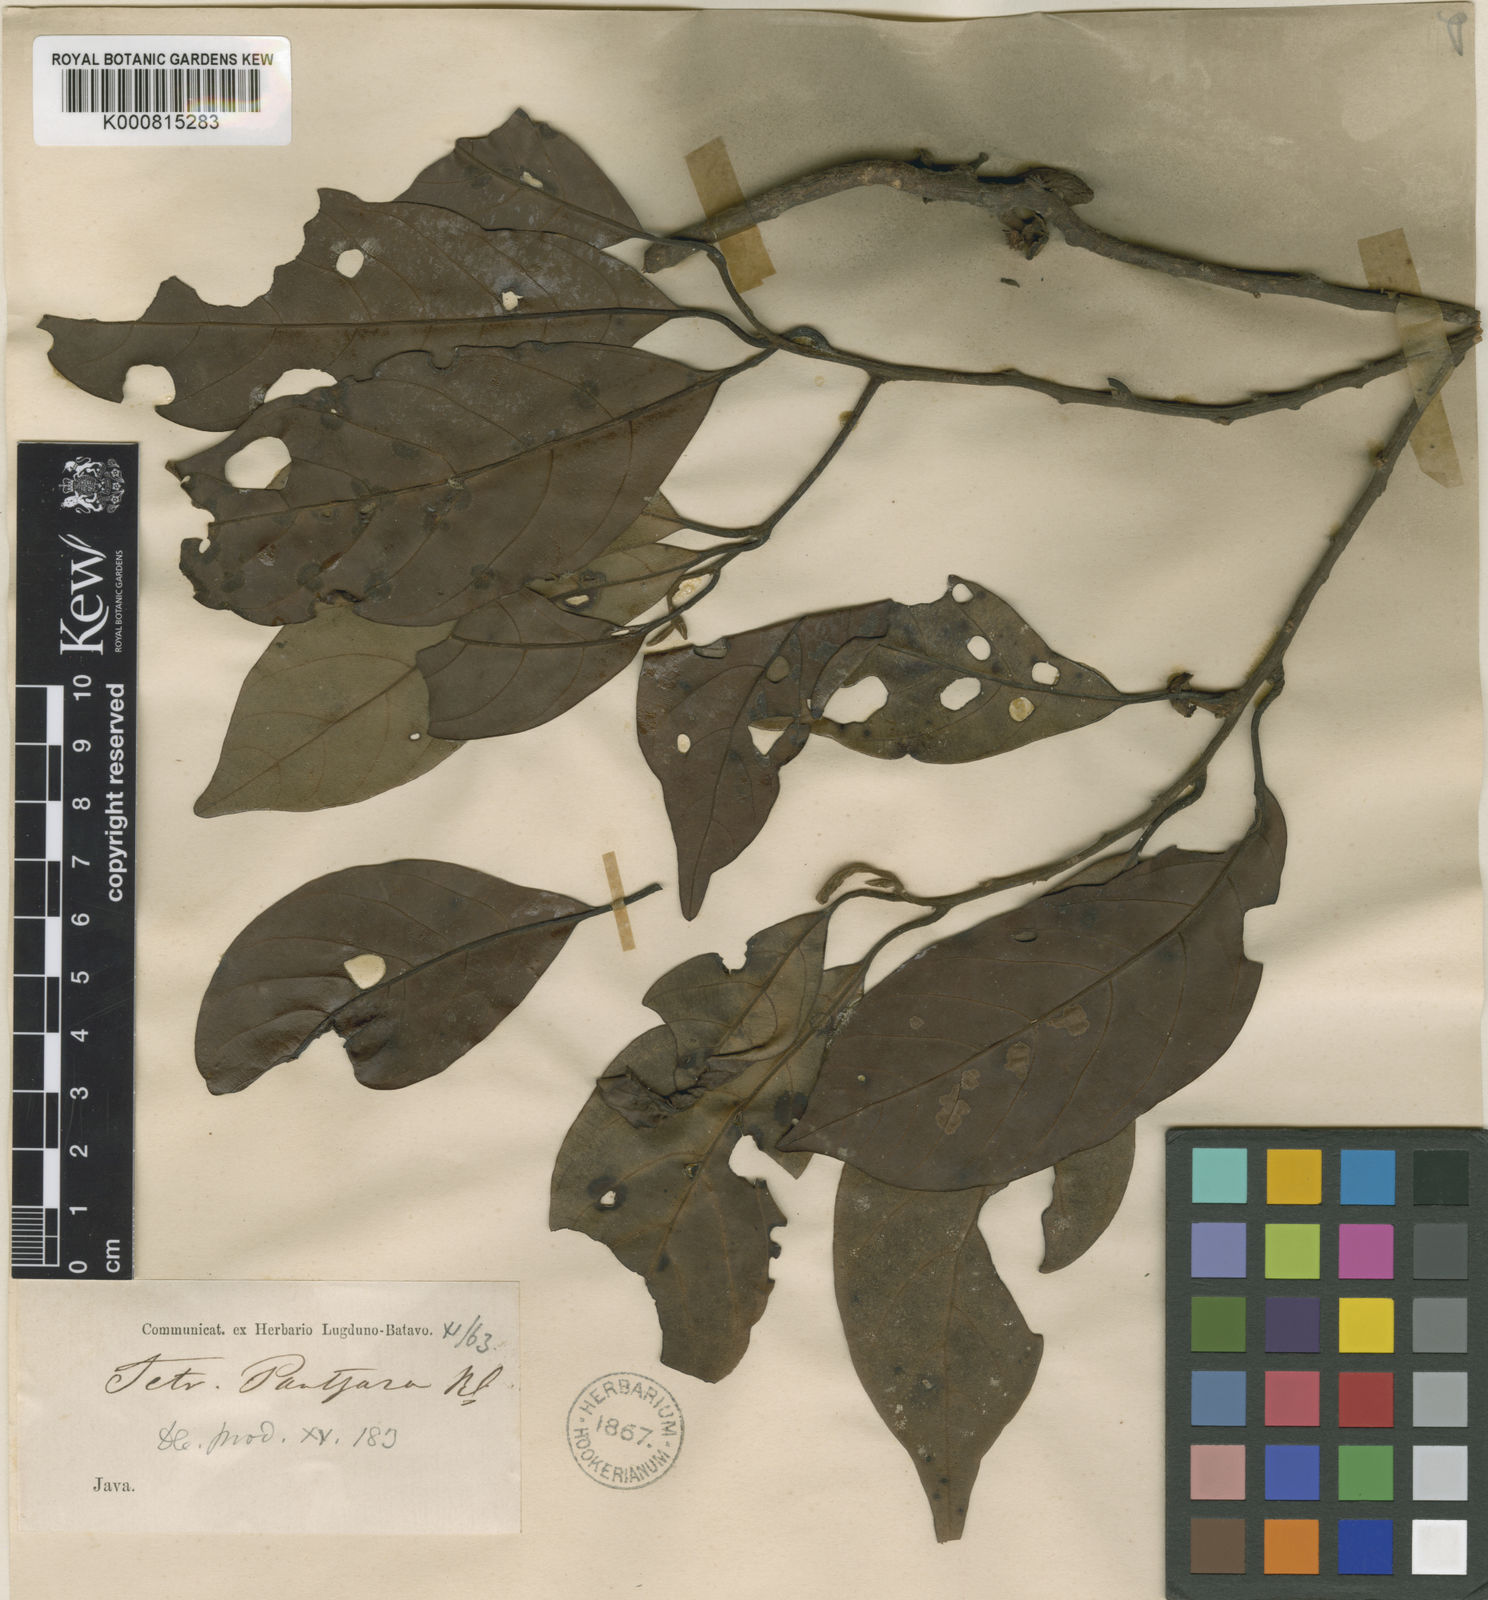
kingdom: Plantae
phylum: Tracheophyta
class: Magnoliopsida
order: Laurales
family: Lauraceae
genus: Litsea
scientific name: Litsea resinosa
